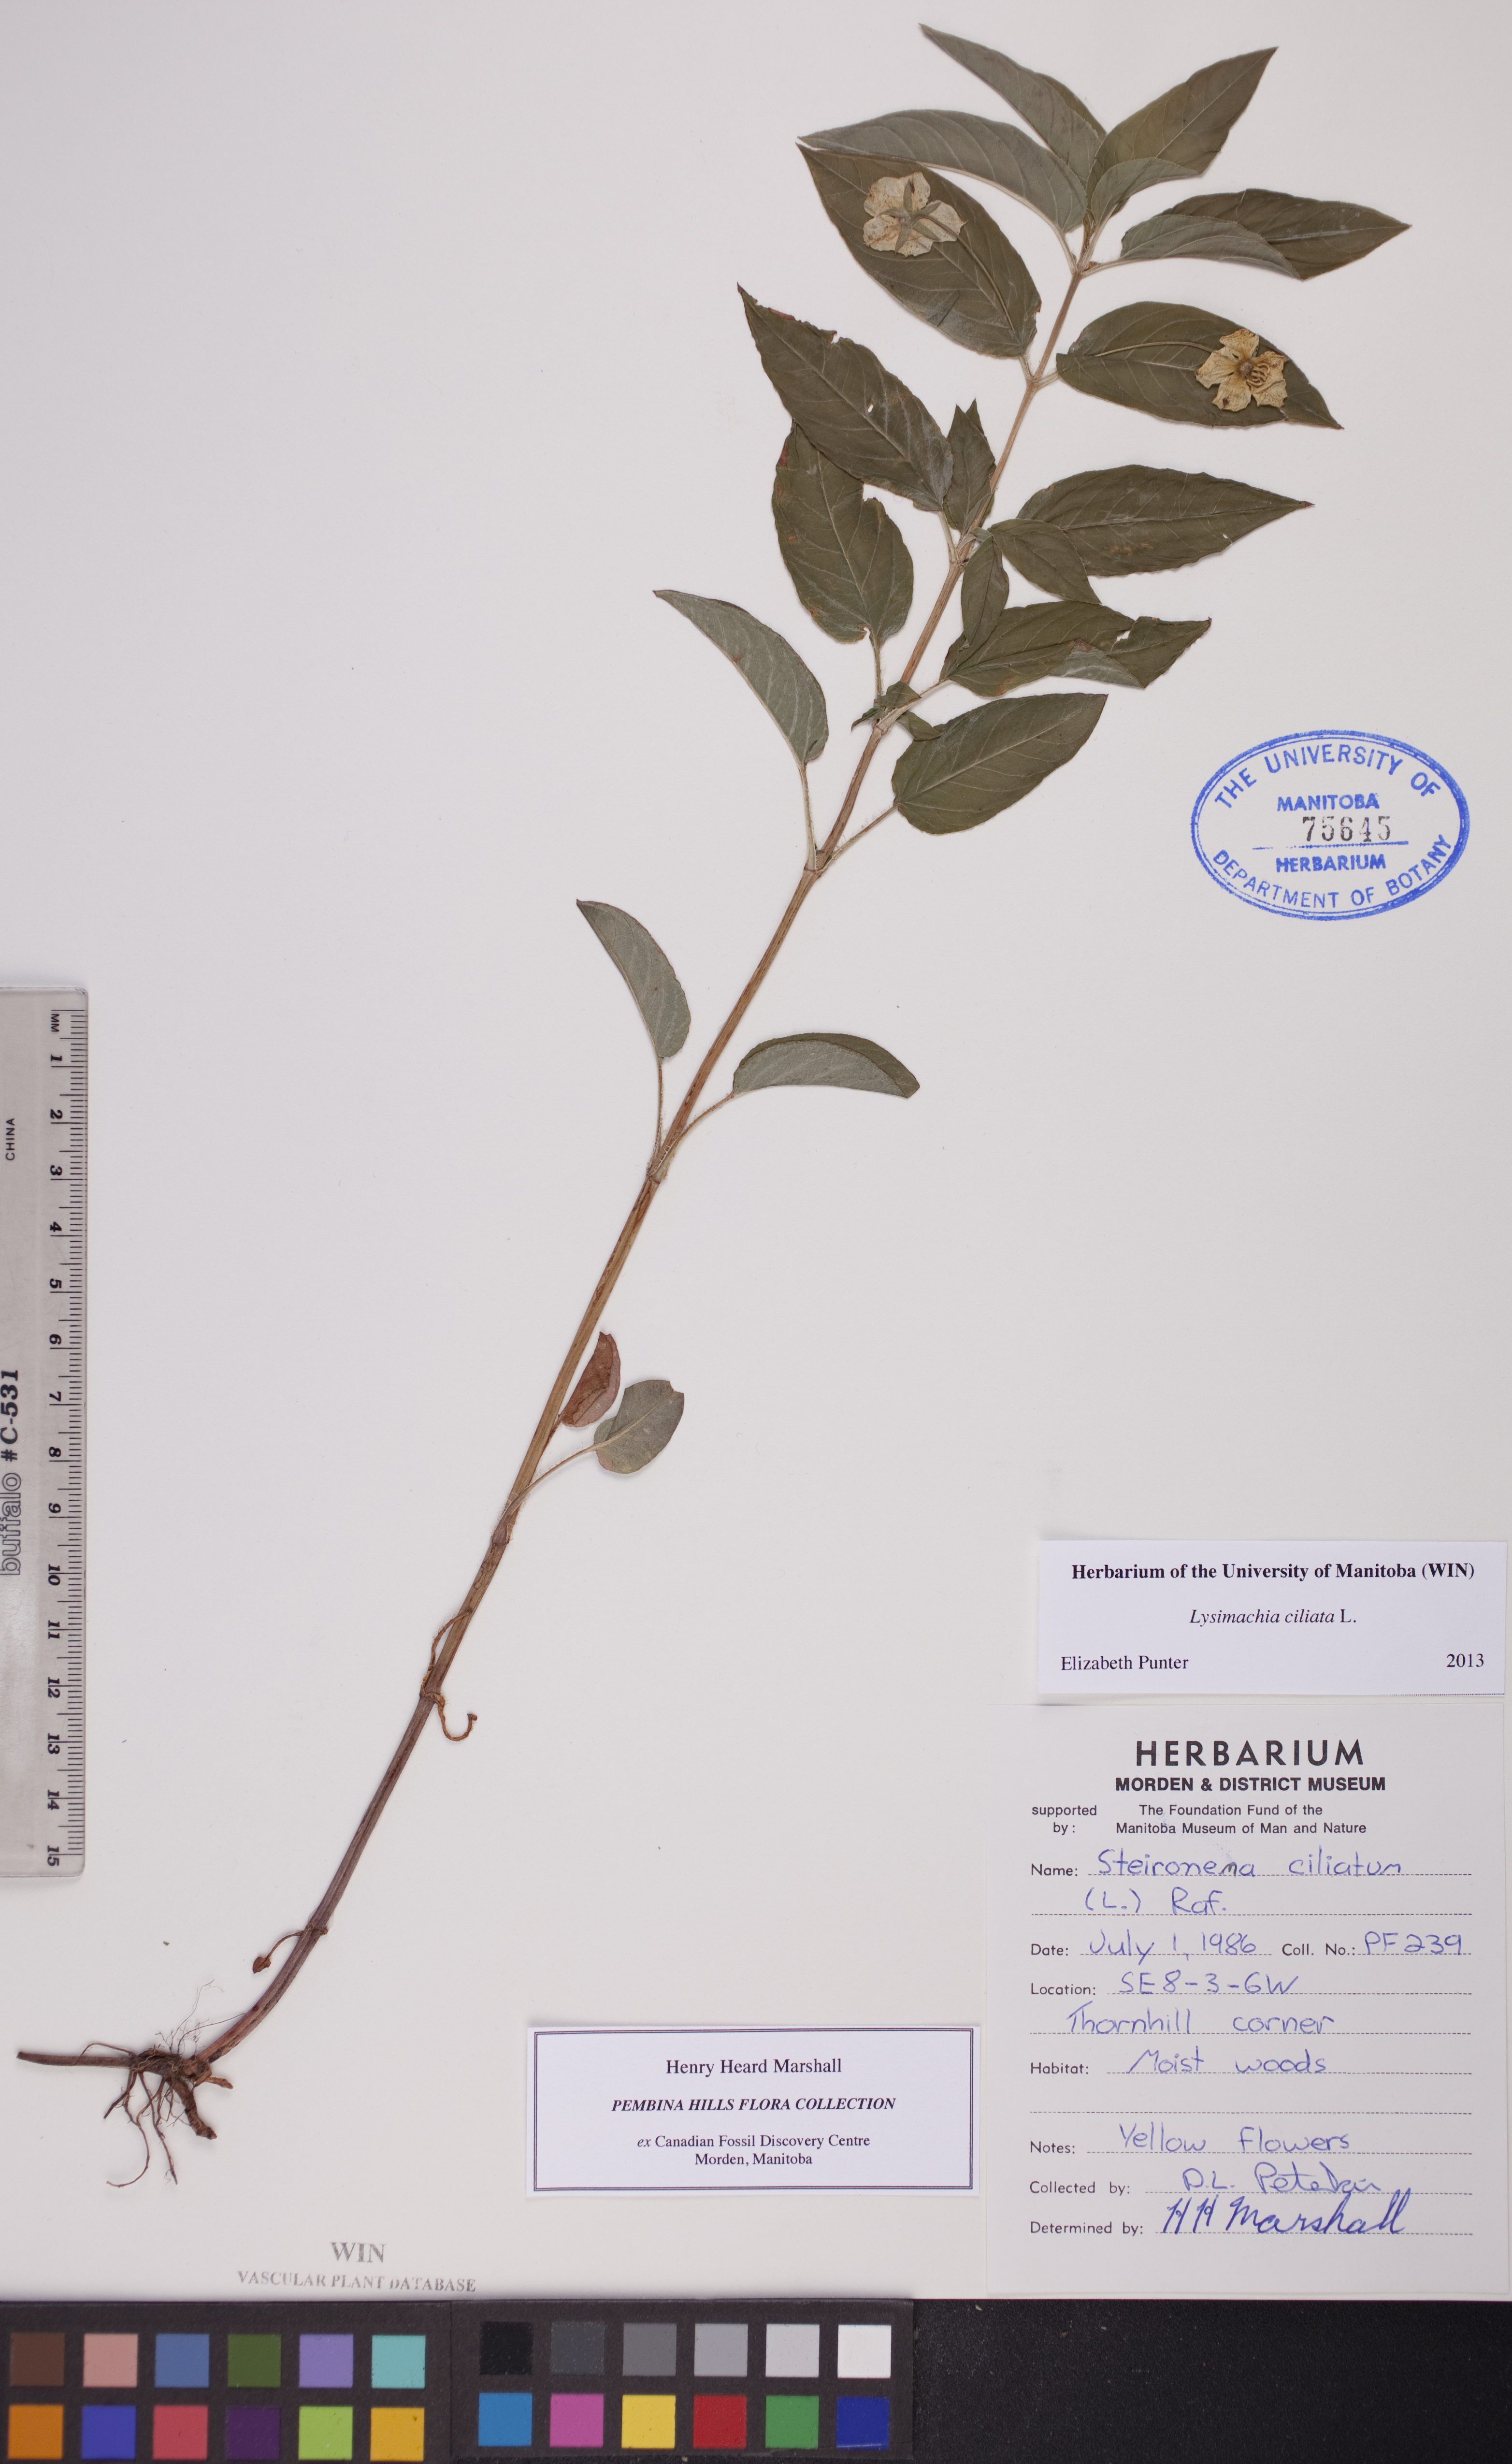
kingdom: Plantae
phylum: Tracheophyta
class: Magnoliopsida
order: Ericales
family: Primulaceae
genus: Lysimachia
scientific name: Lysimachia ciliata
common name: Fringed loosestrife
